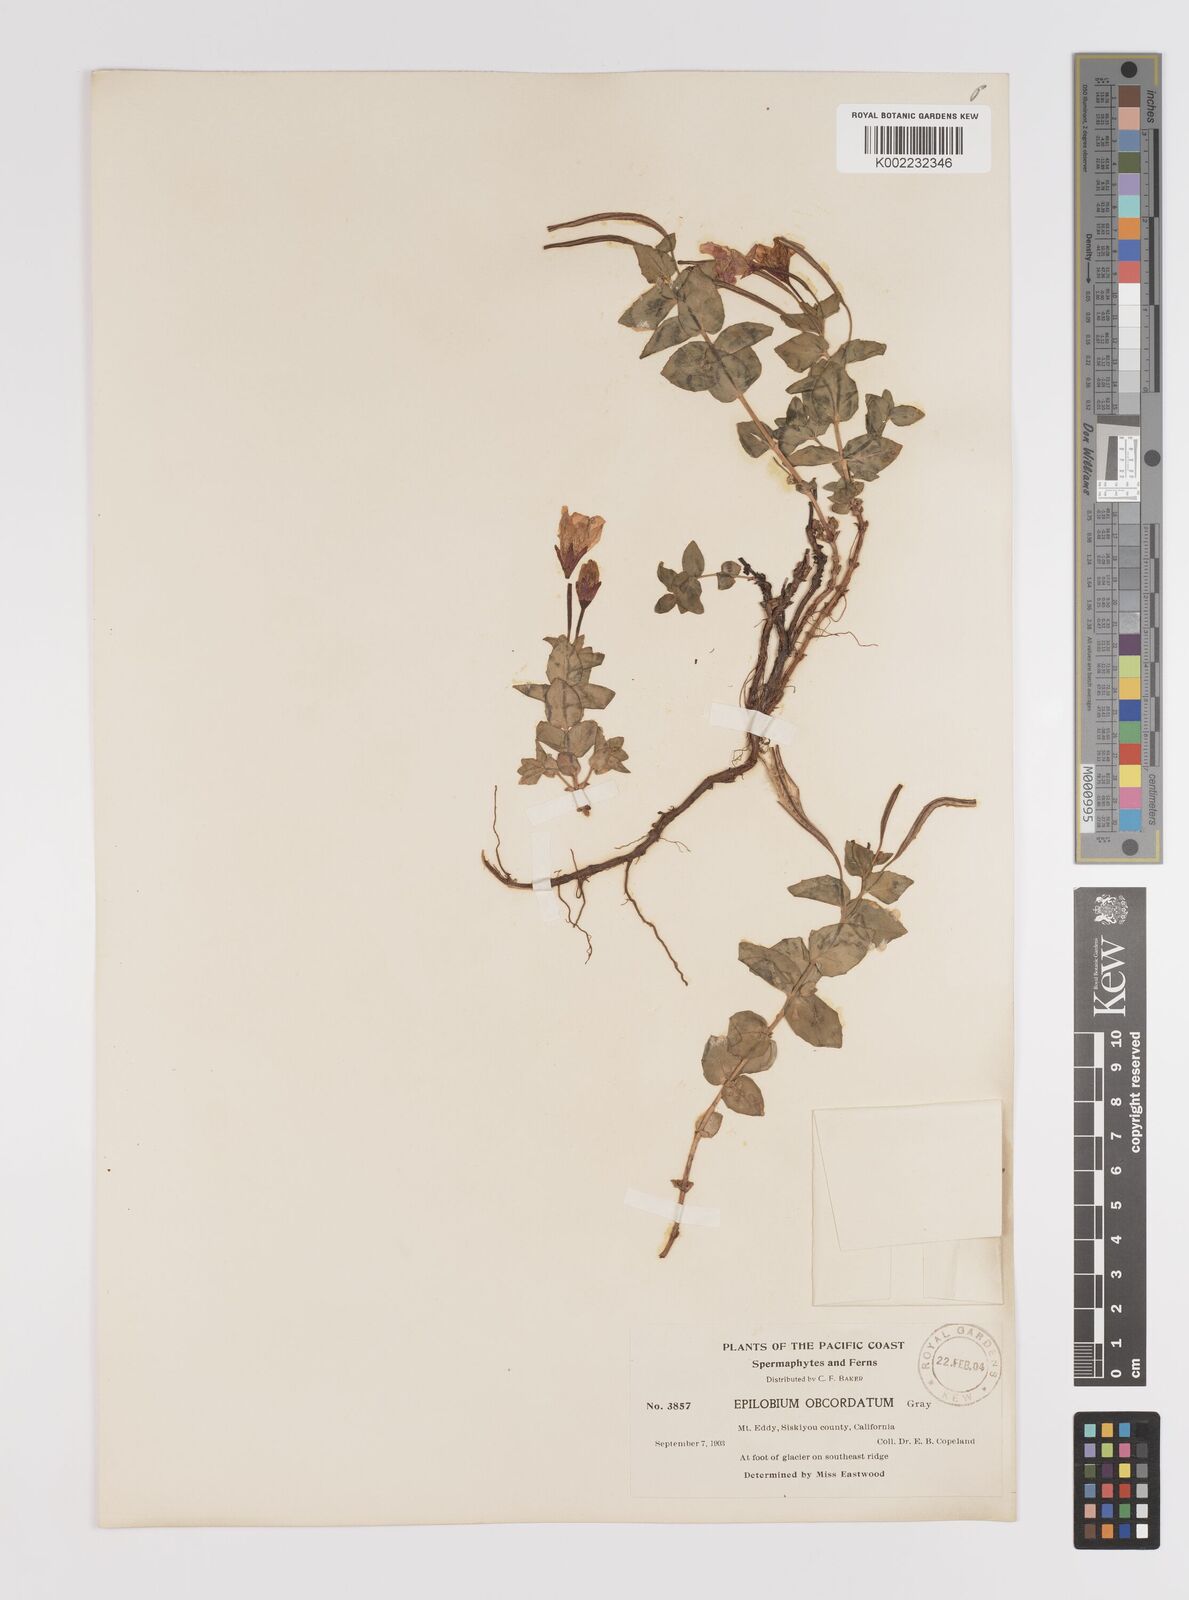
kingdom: Plantae
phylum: Tracheophyta
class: Magnoliopsida
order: Myrtales
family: Onagraceae
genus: Epilobium
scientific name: Epilobium obcordatum
